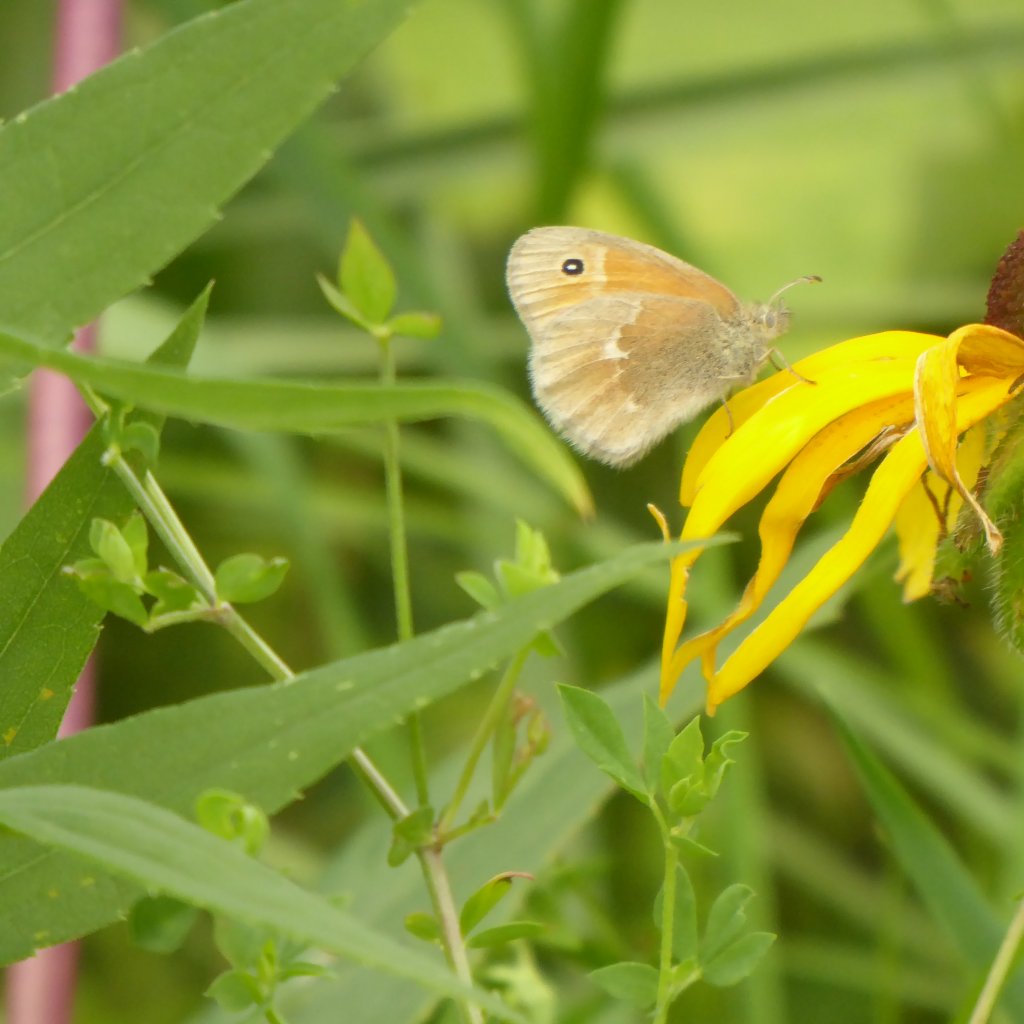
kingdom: Animalia
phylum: Arthropoda
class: Insecta
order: Lepidoptera
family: Nymphalidae
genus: Coenonympha
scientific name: Coenonympha tullia
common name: Large Heath
